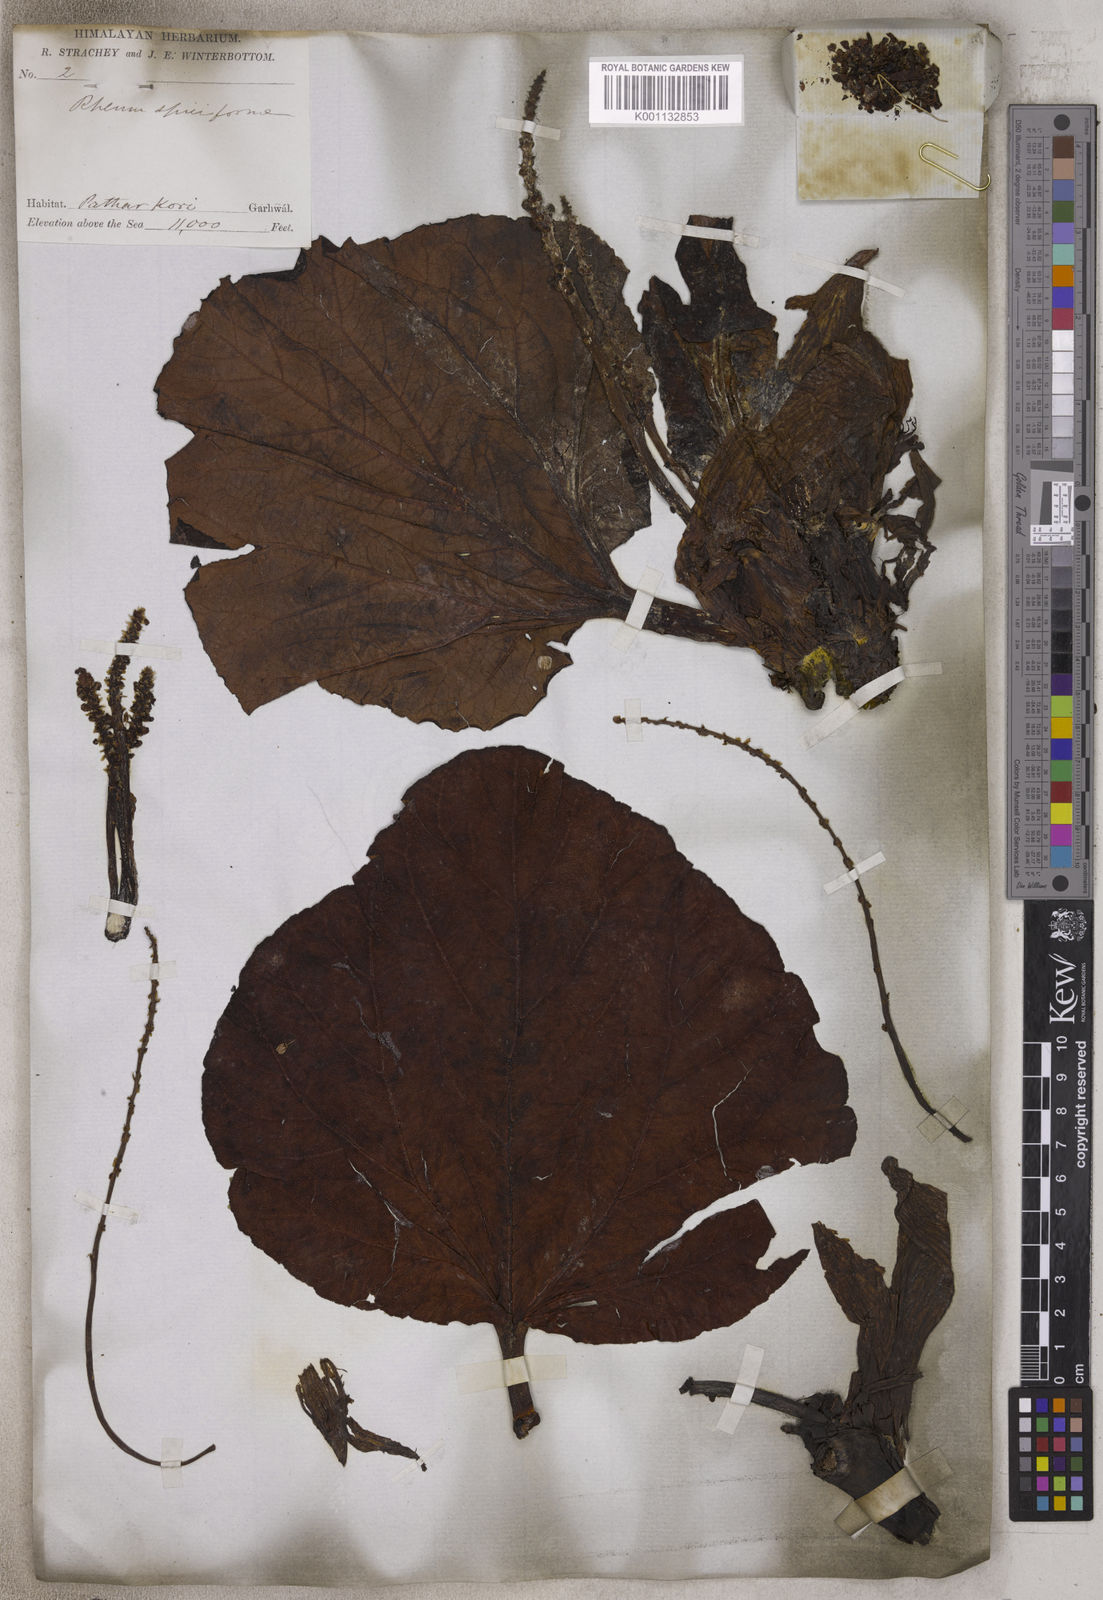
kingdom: Plantae
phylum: Tracheophyta
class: Magnoliopsida
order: Caryophyllales
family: Polygonaceae
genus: Rheum
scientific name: Rheum moorcroftianum
